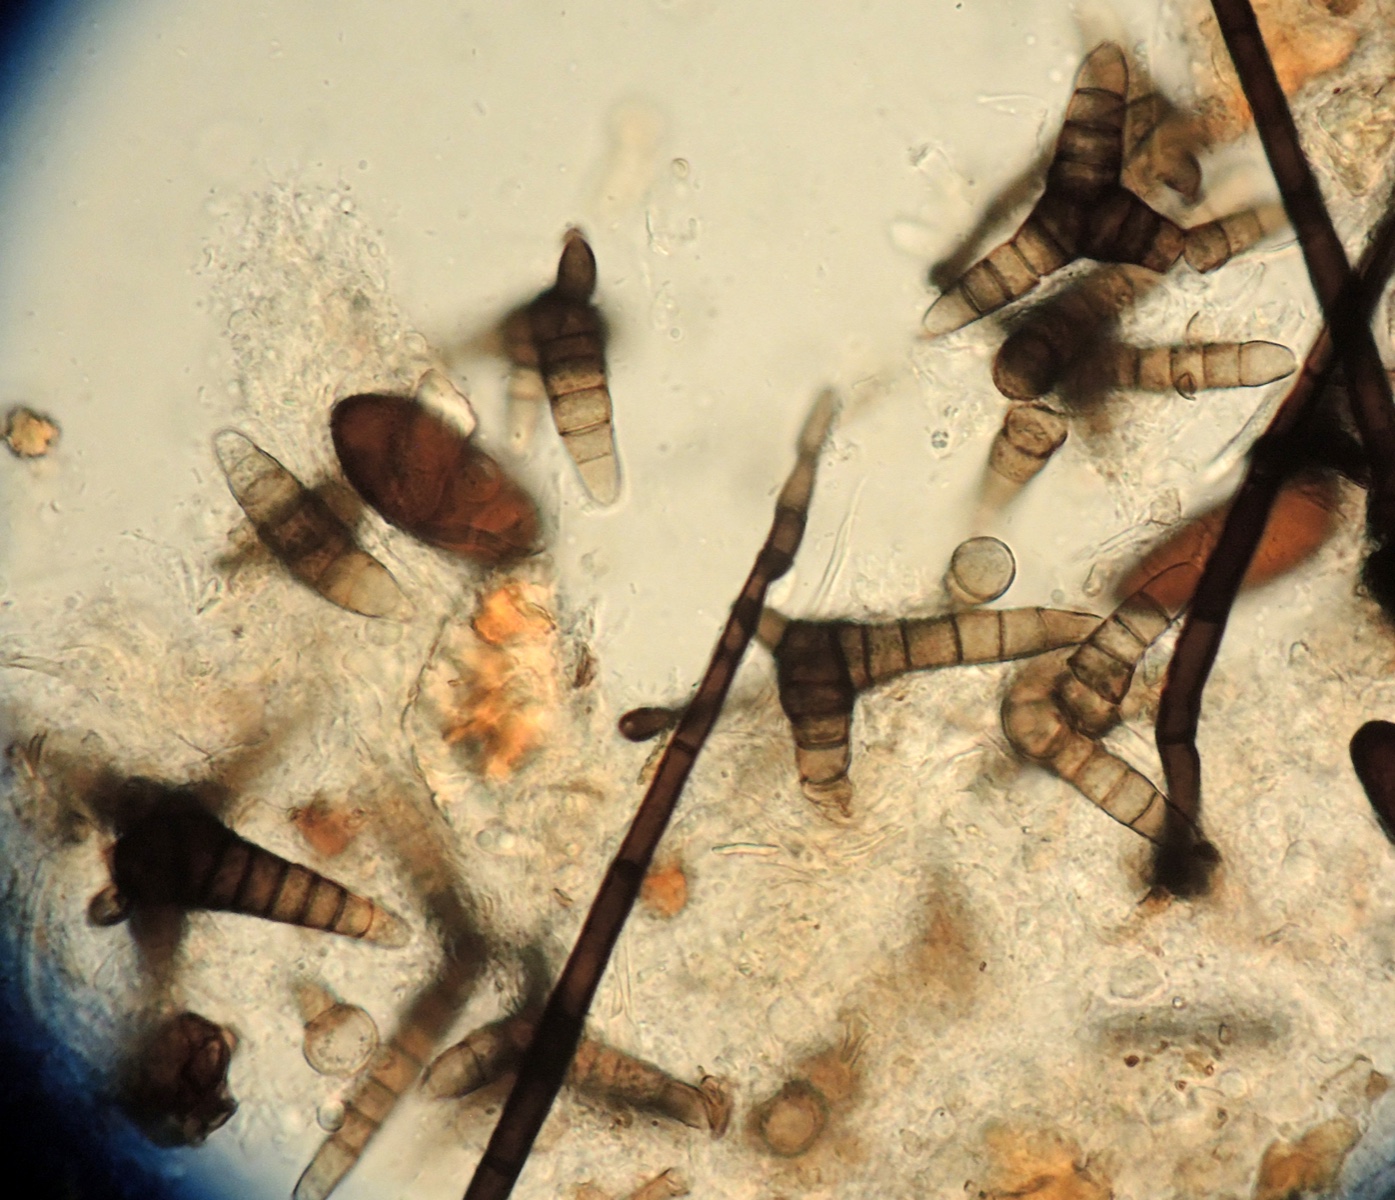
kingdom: Fungi
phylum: Ascomycota
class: Leotiomycetes
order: Helotiales
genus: Triposporium
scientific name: Triposporium elegans
